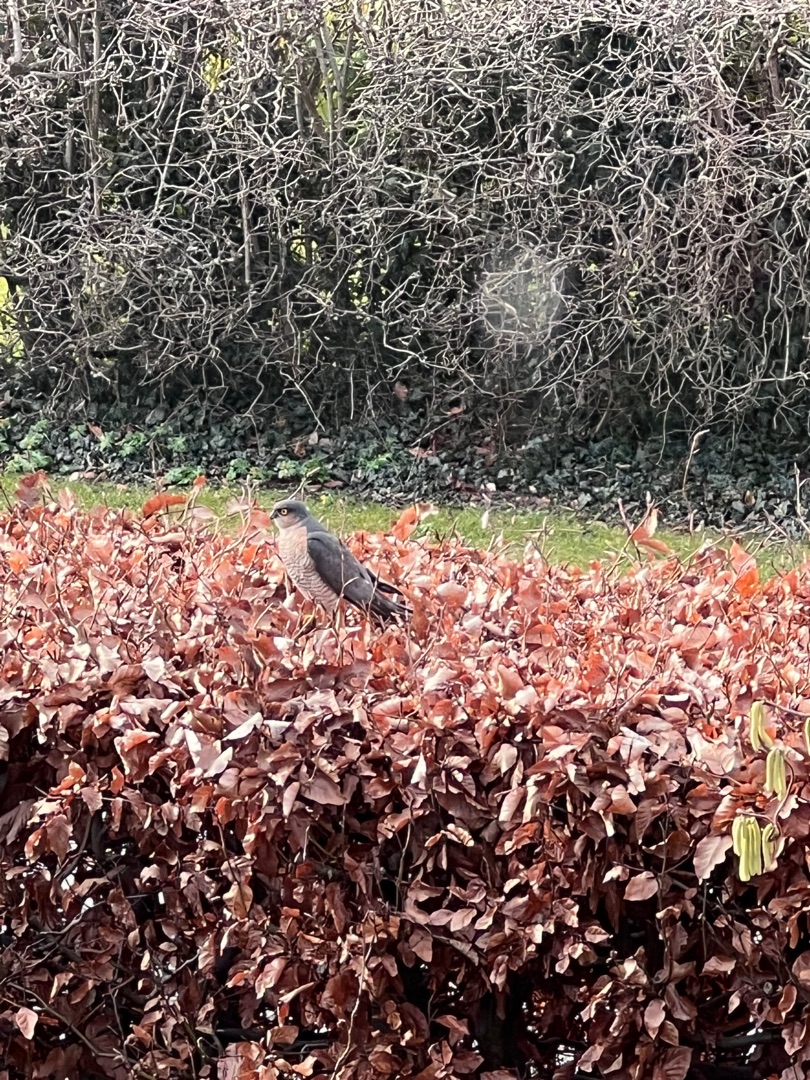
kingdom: Animalia
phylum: Chordata
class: Aves
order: Accipitriformes
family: Accipitridae
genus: Accipiter
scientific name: Accipiter nisus
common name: Spurvehøg
